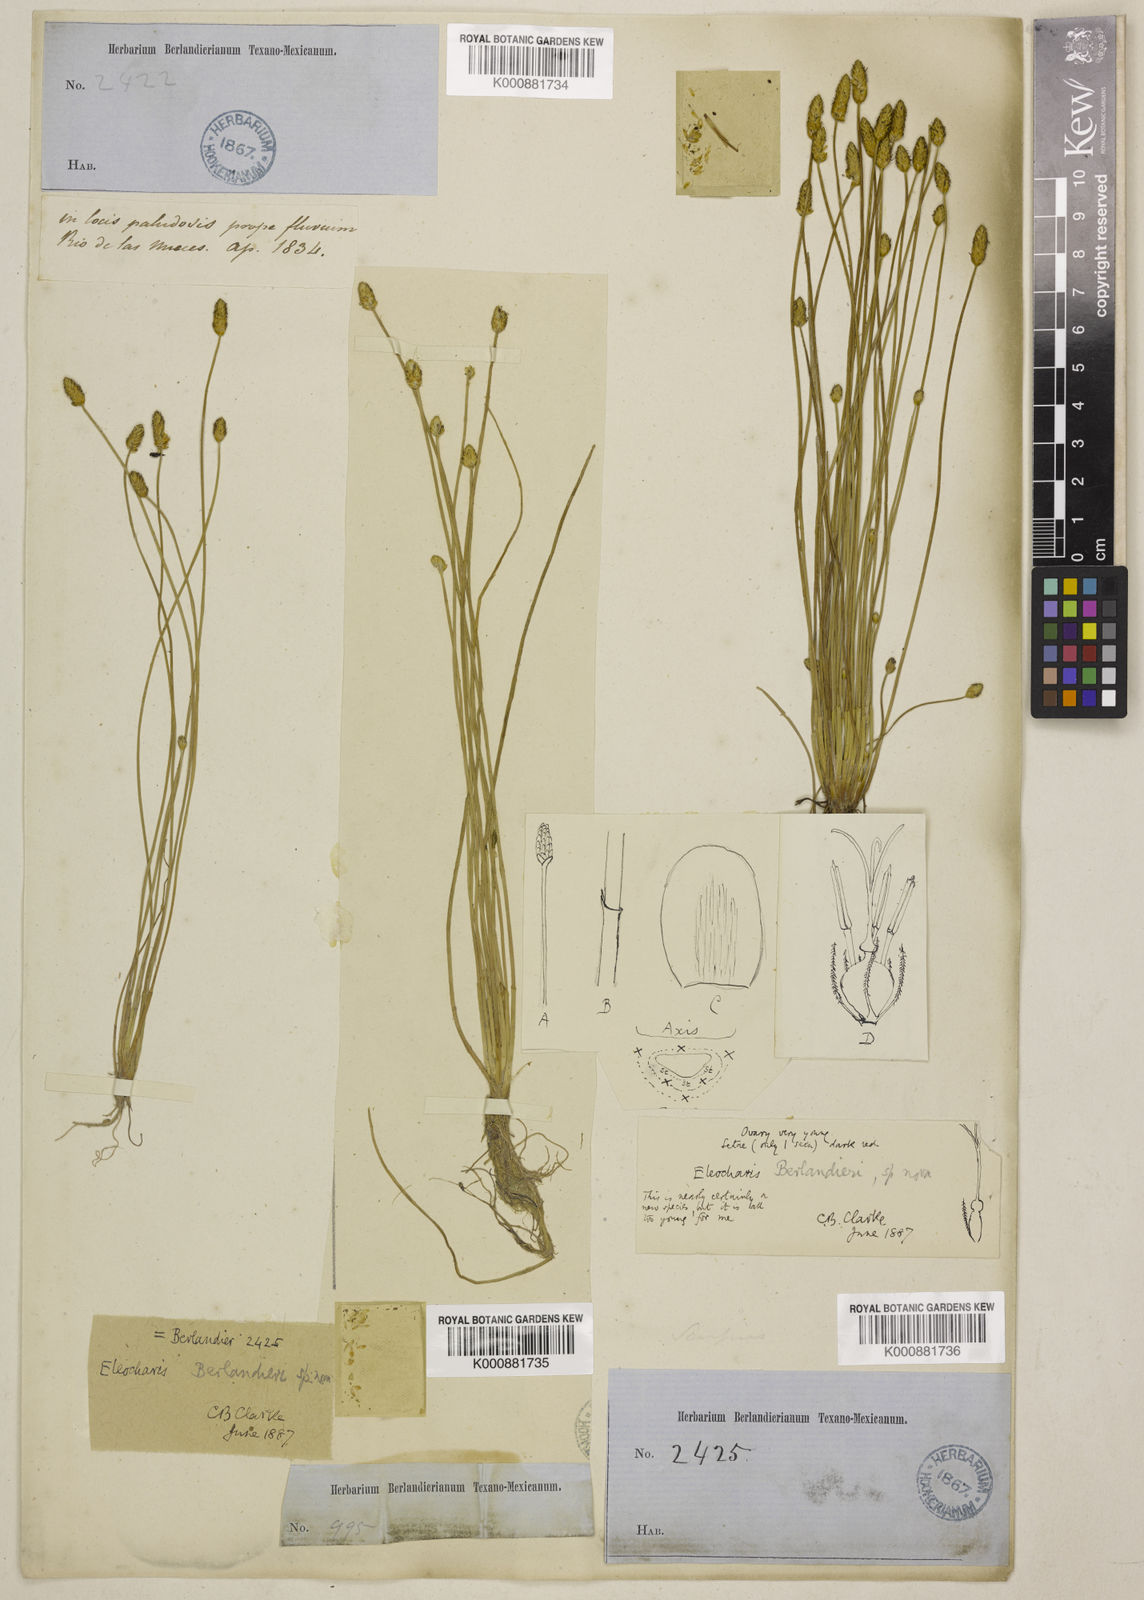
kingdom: Plantae
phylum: Tracheophyta
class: Liliopsida
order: Poales
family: Cyperaceae
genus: Eleocharis
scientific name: Eleocharis albida
